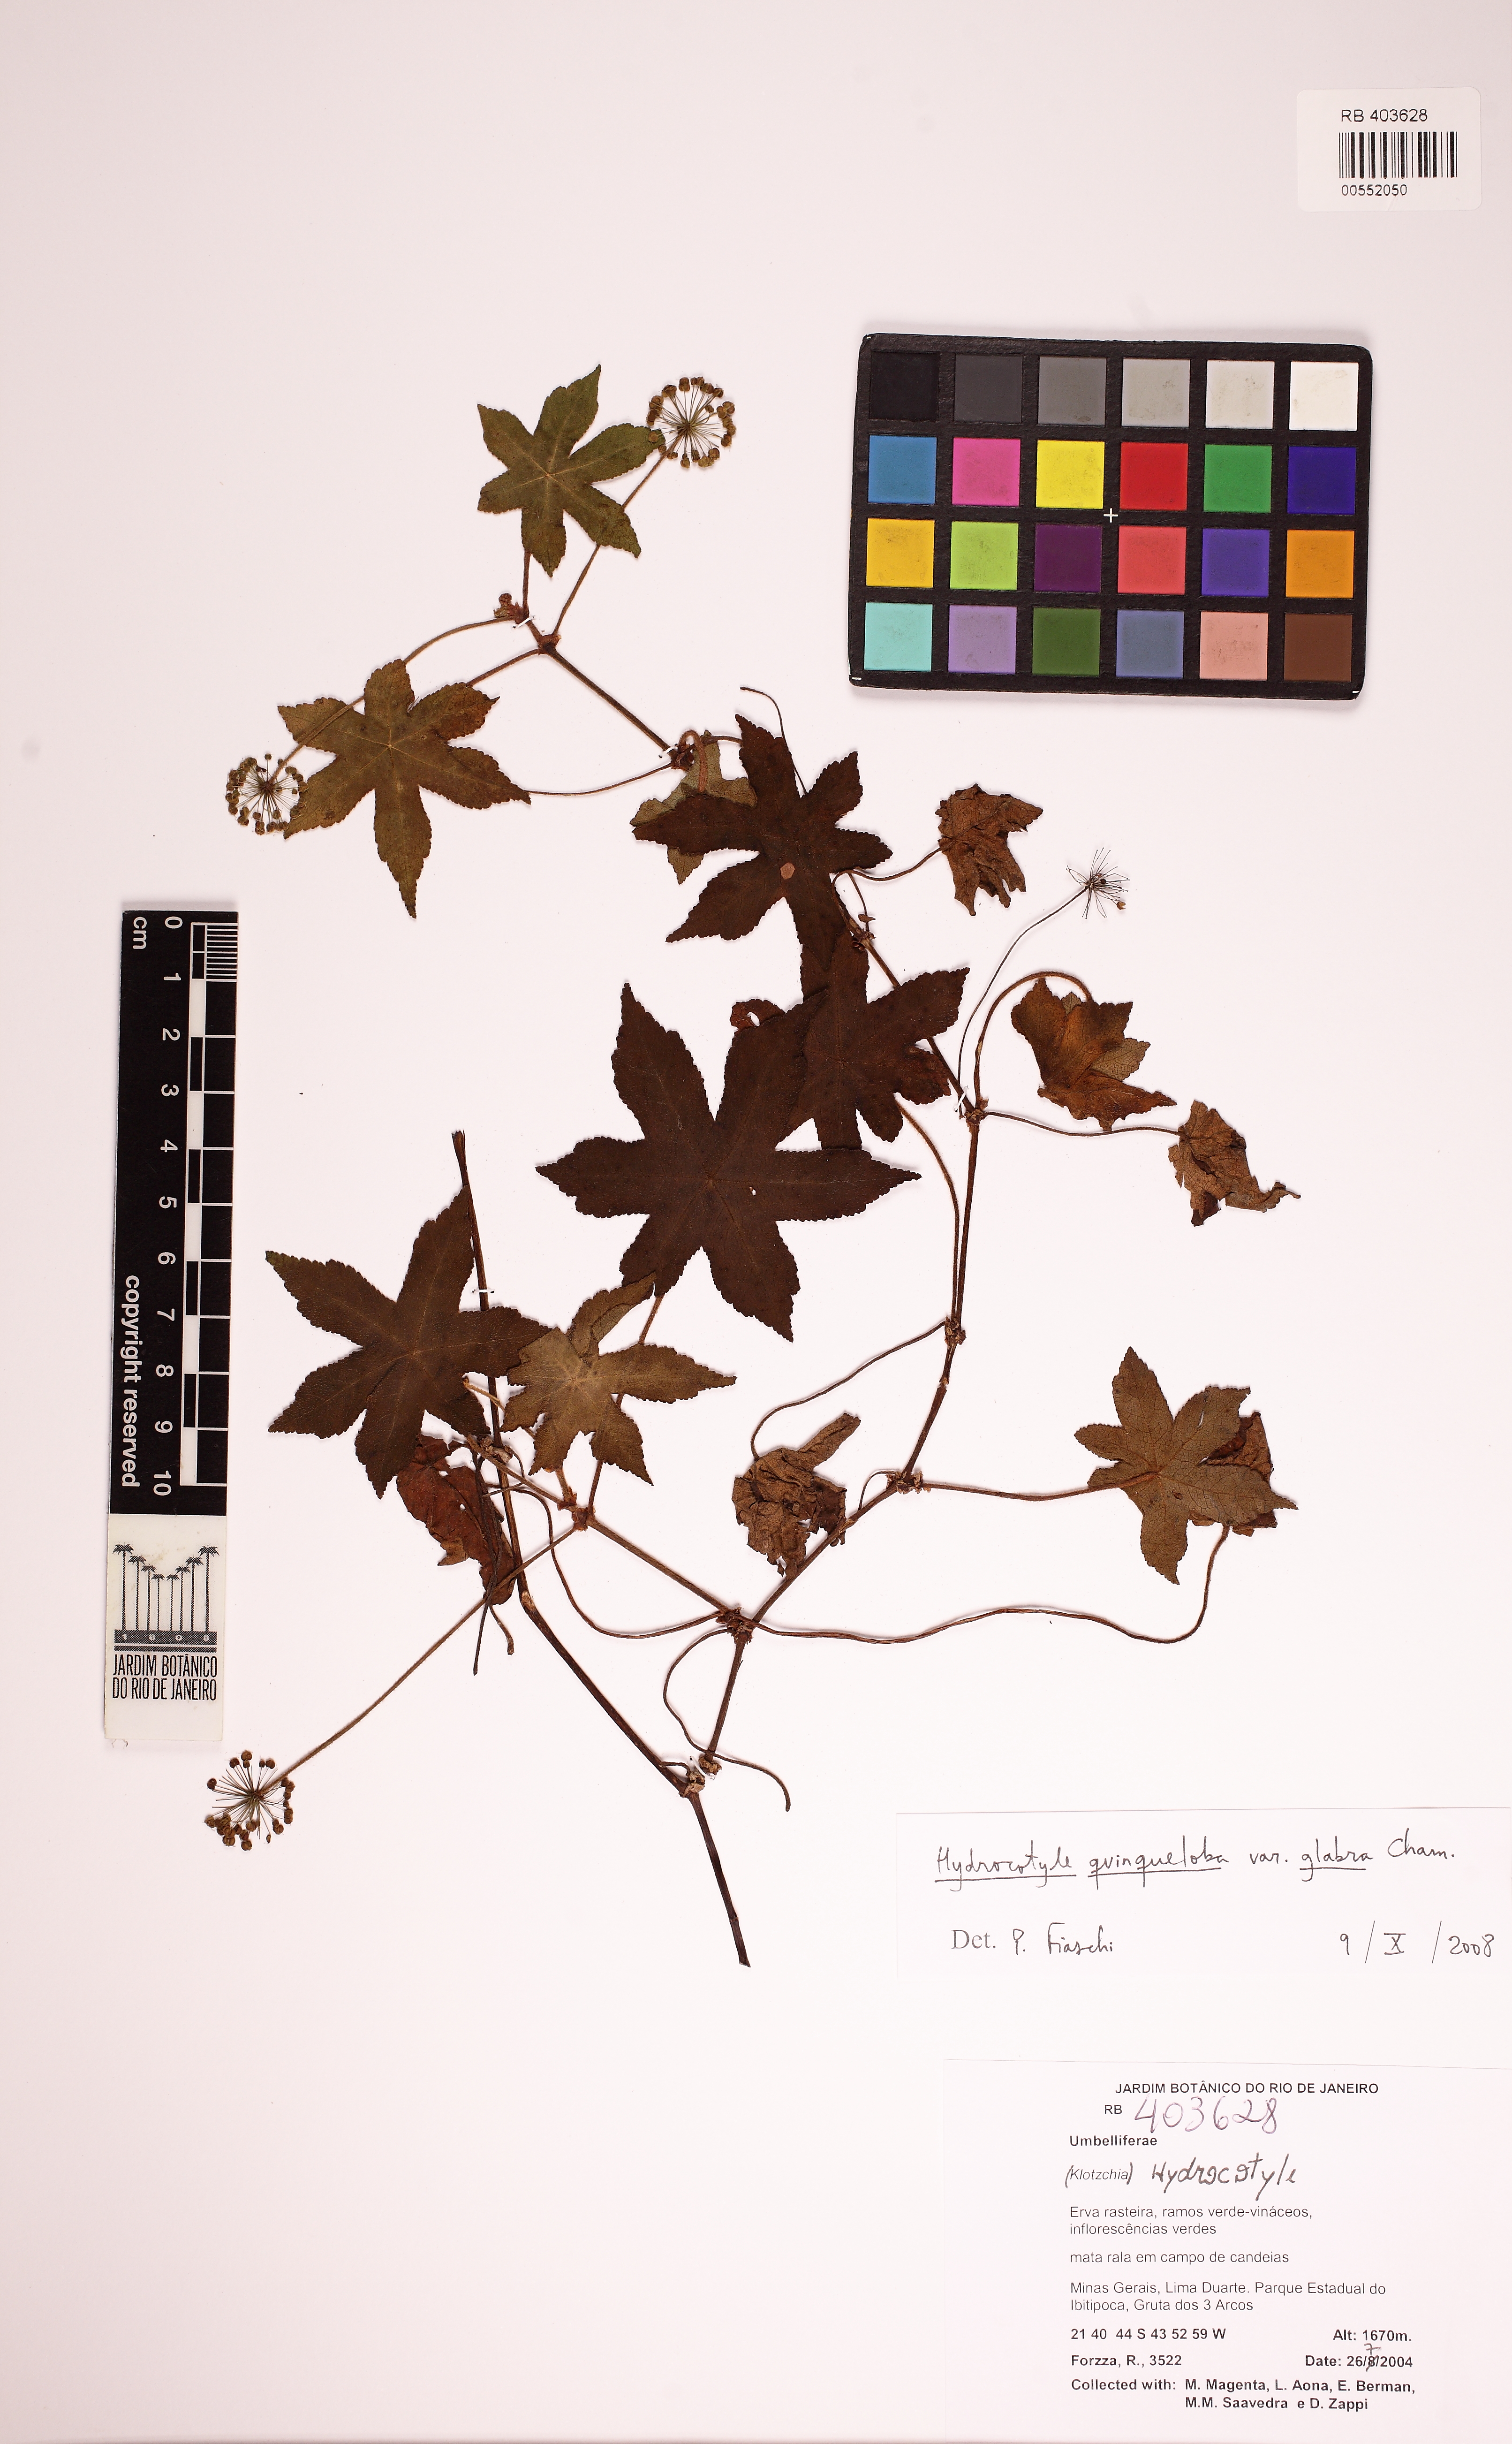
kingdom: Plantae
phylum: Tracheophyta
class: Magnoliopsida
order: Apiales
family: Araliaceae
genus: Hydrocotyle
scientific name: Hydrocotyle quinqueloba
